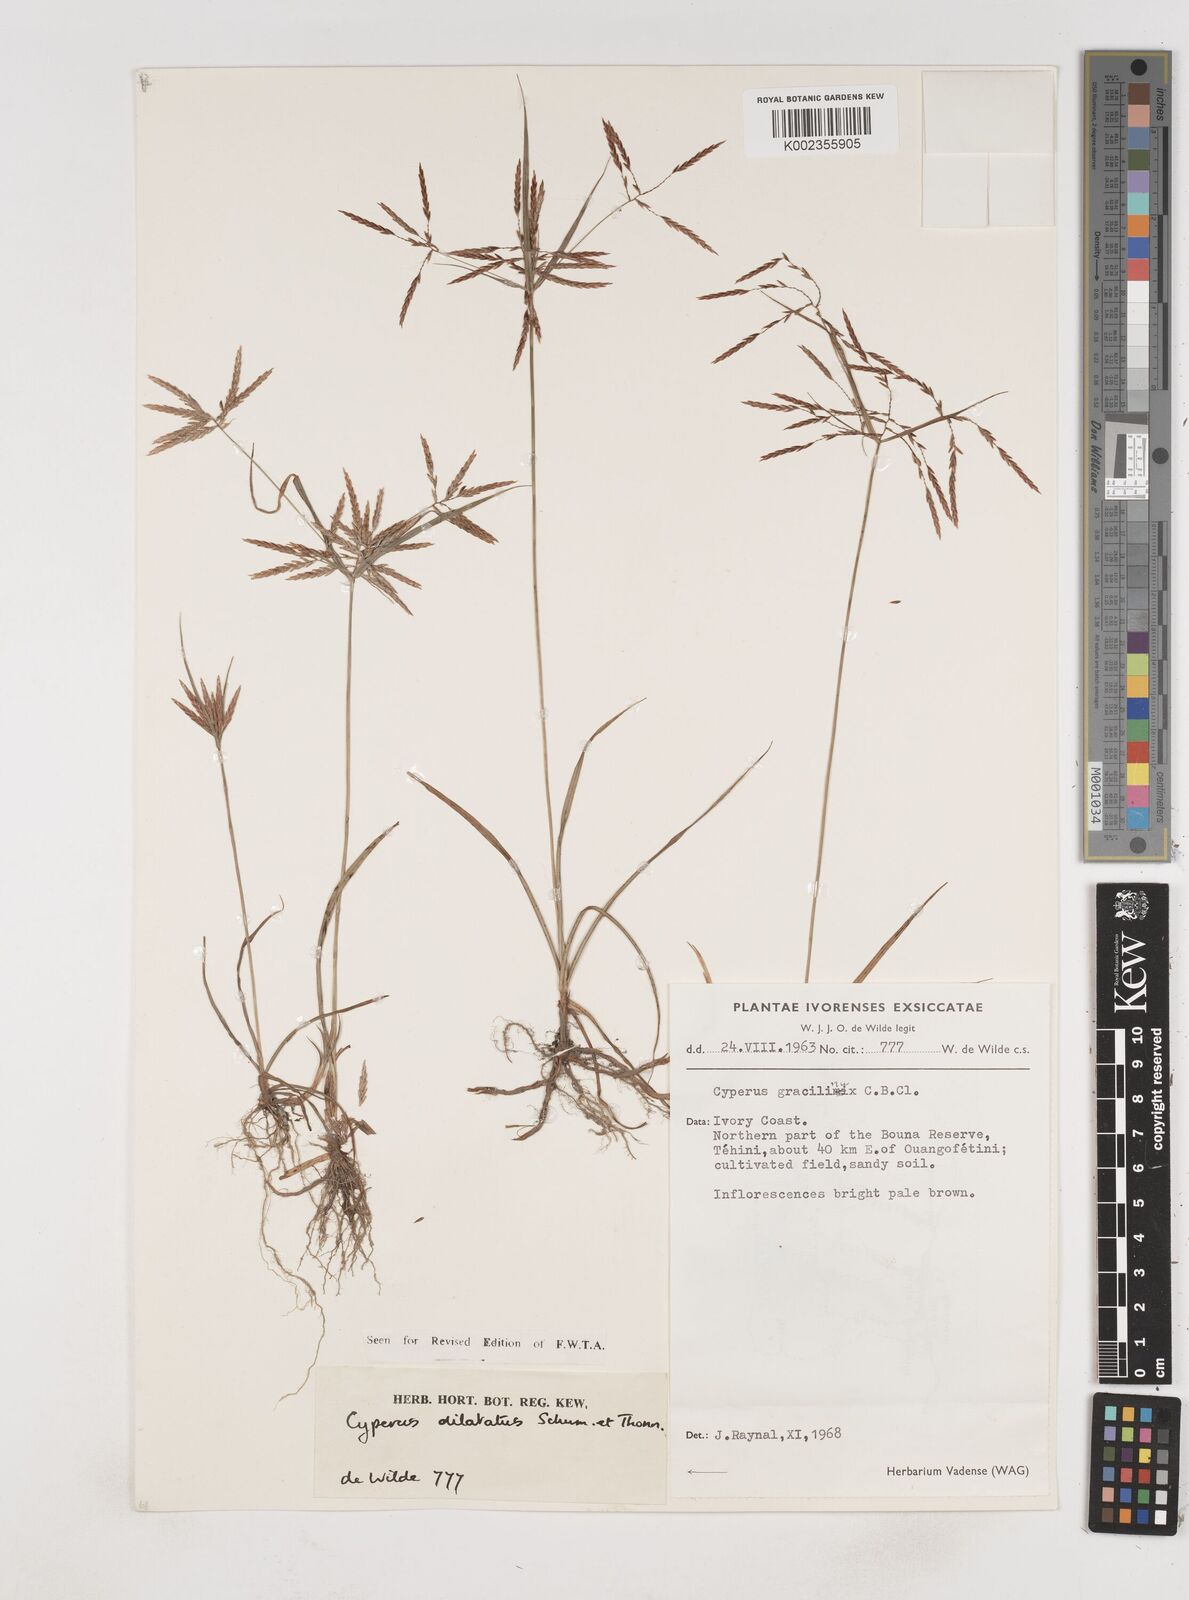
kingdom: Plantae
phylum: Tracheophyta
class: Liliopsida
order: Poales
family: Cyperaceae
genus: Cyperus
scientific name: Cyperus dilatatus
